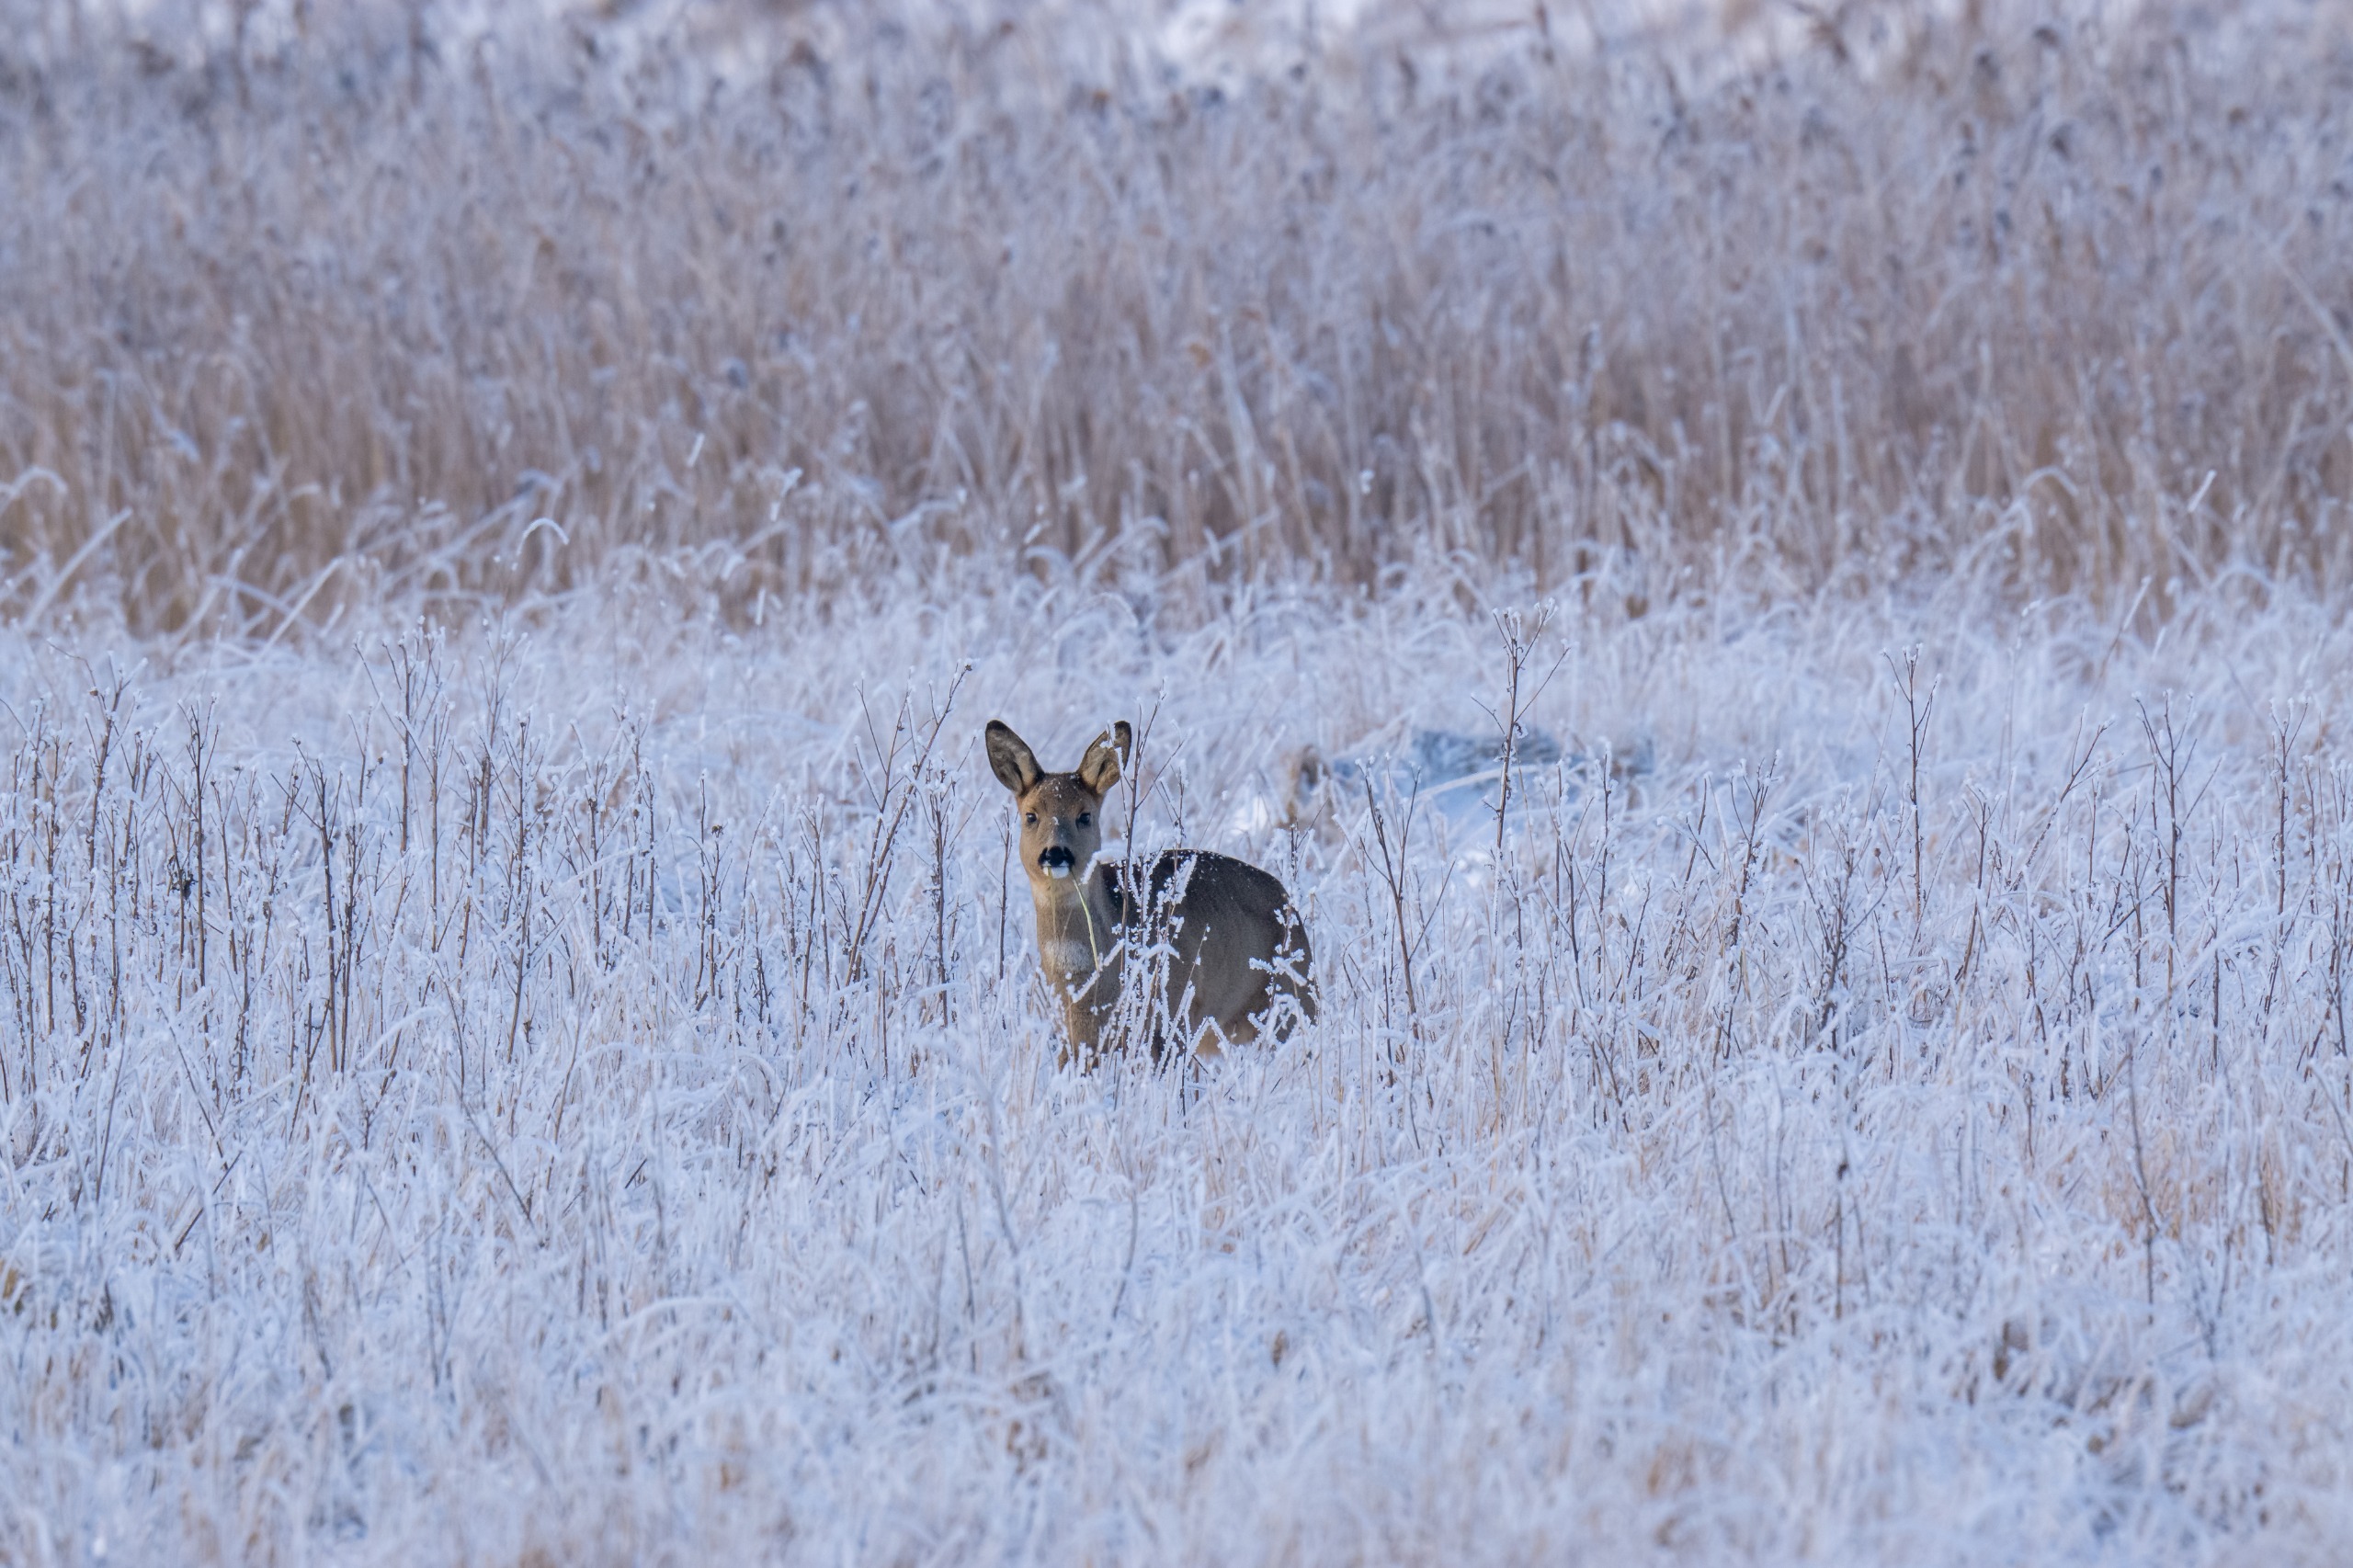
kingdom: Animalia
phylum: Chordata
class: Mammalia
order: Artiodactyla
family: Cervidae
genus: Capreolus
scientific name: Capreolus capreolus
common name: Rådyr
